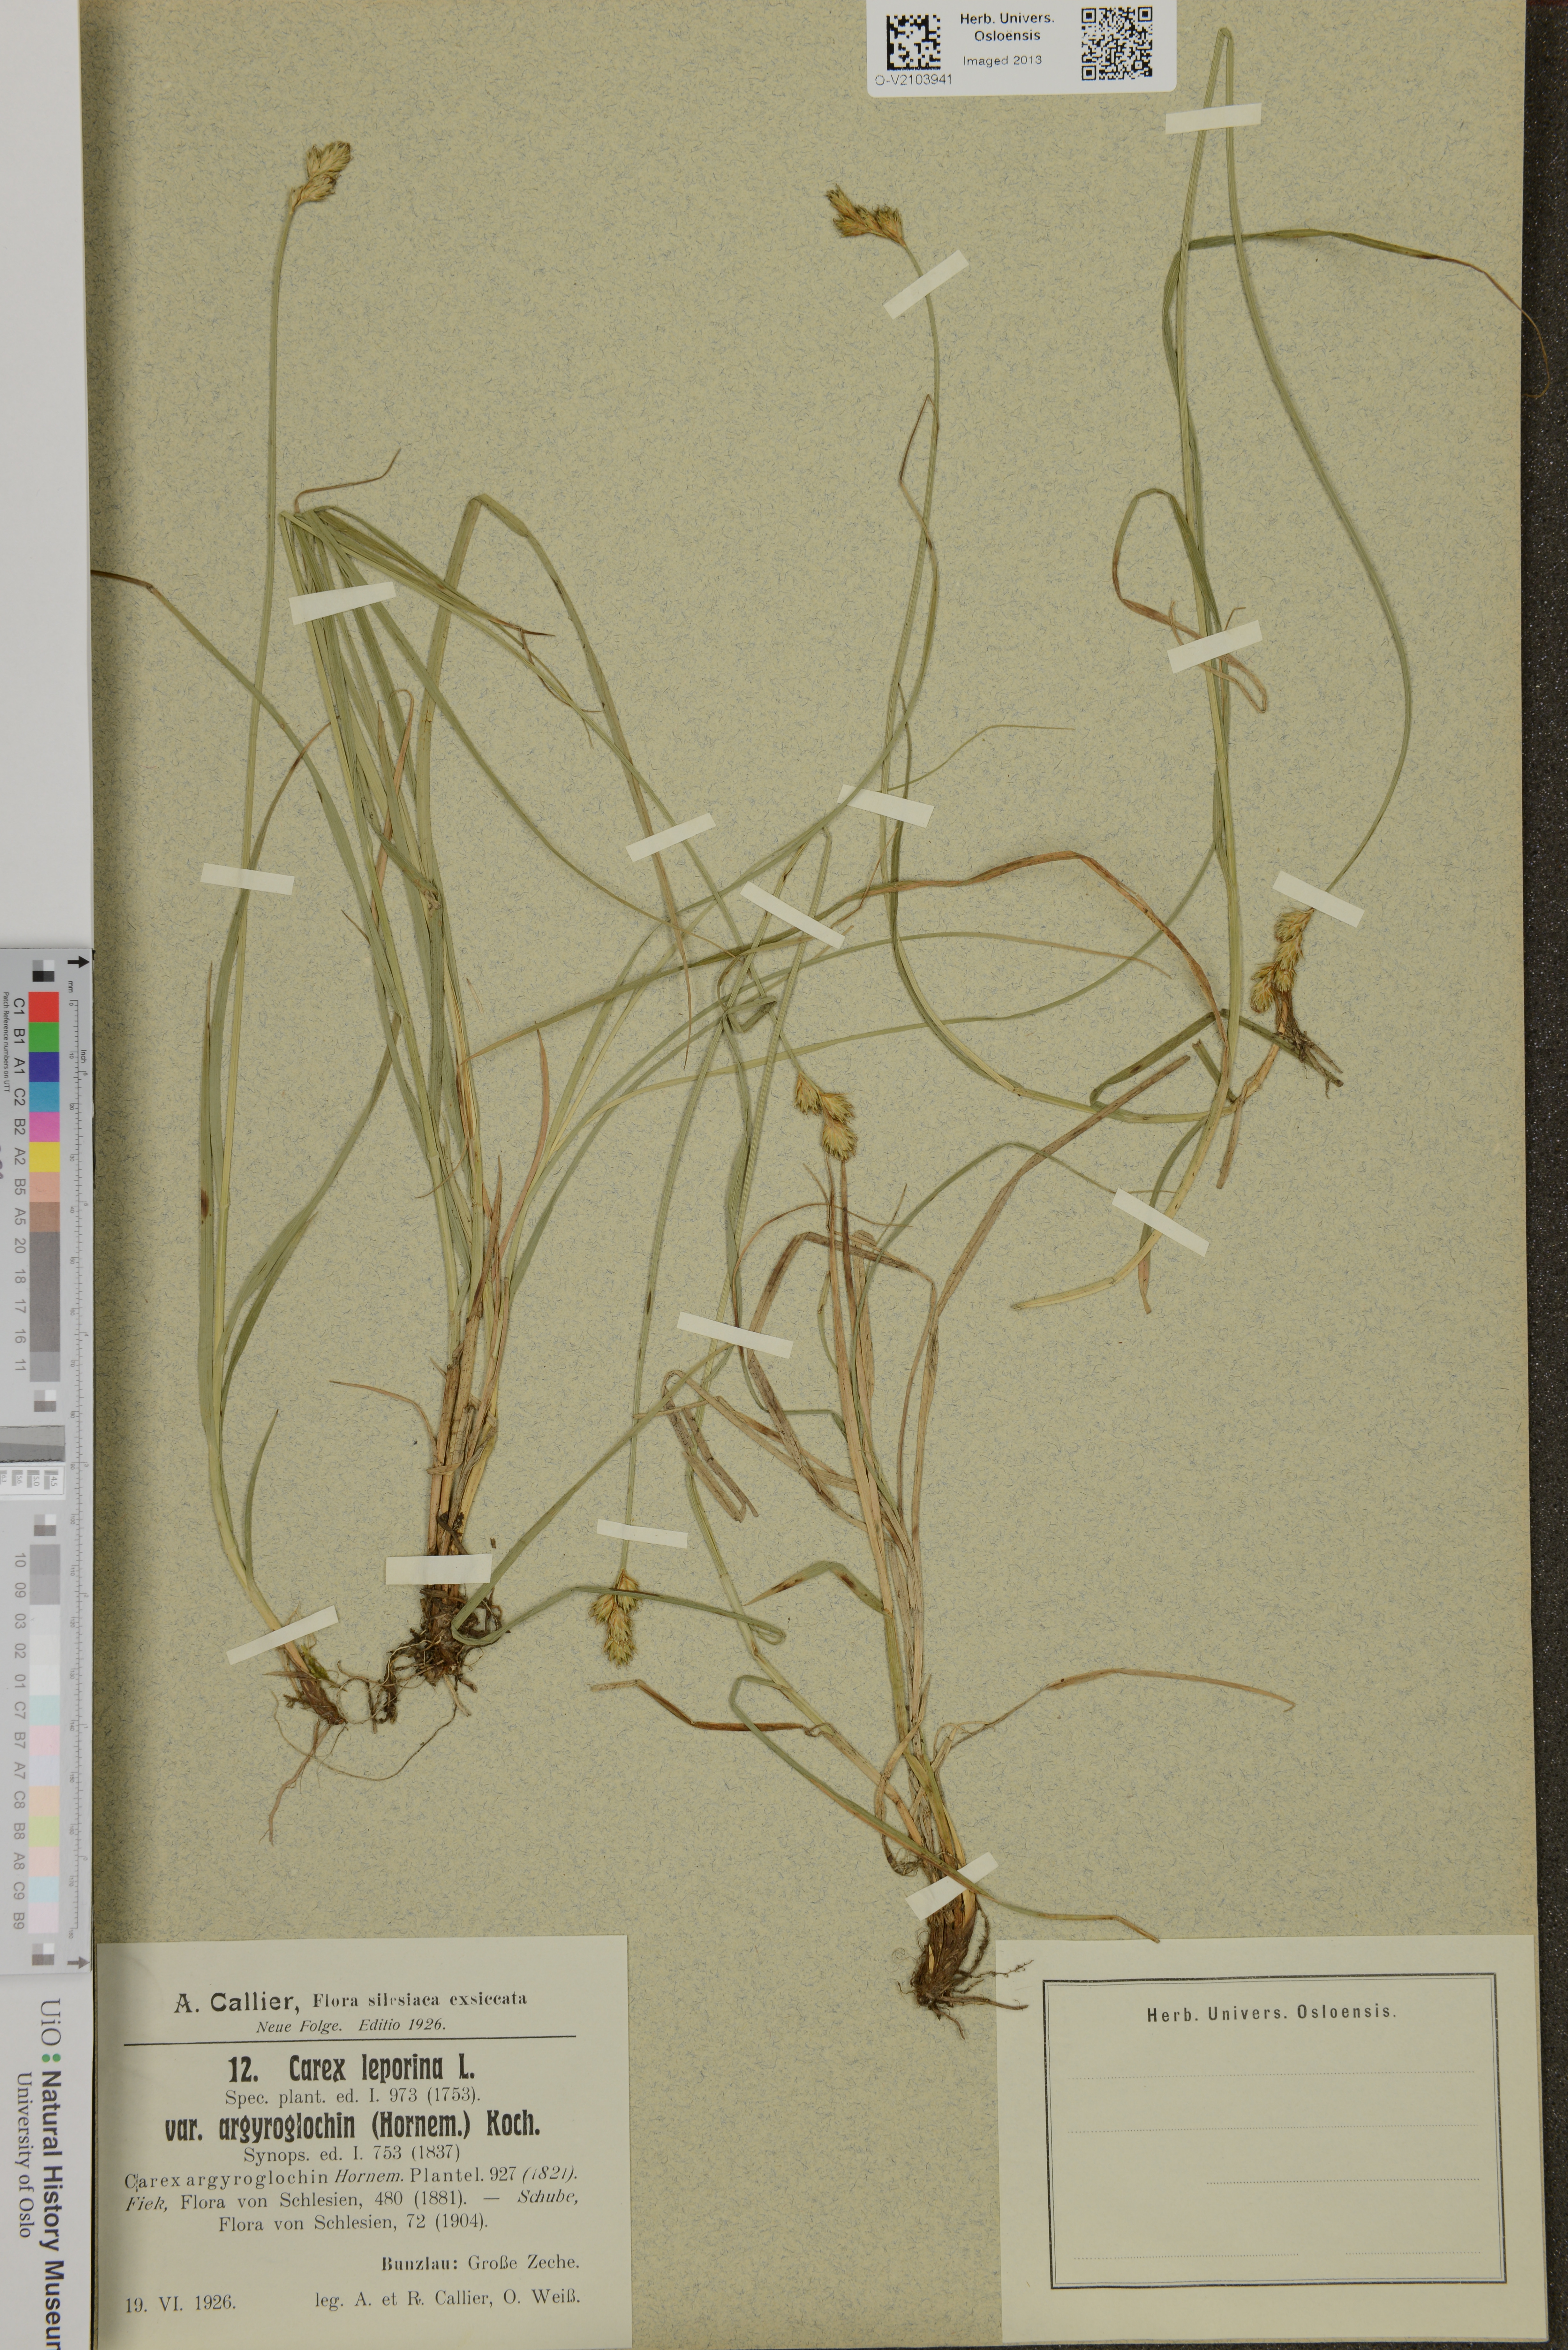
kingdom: Plantae
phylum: Tracheophyta
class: Liliopsida
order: Poales
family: Cyperaceae
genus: Carex
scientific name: Carex leporina
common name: Oval sedge
